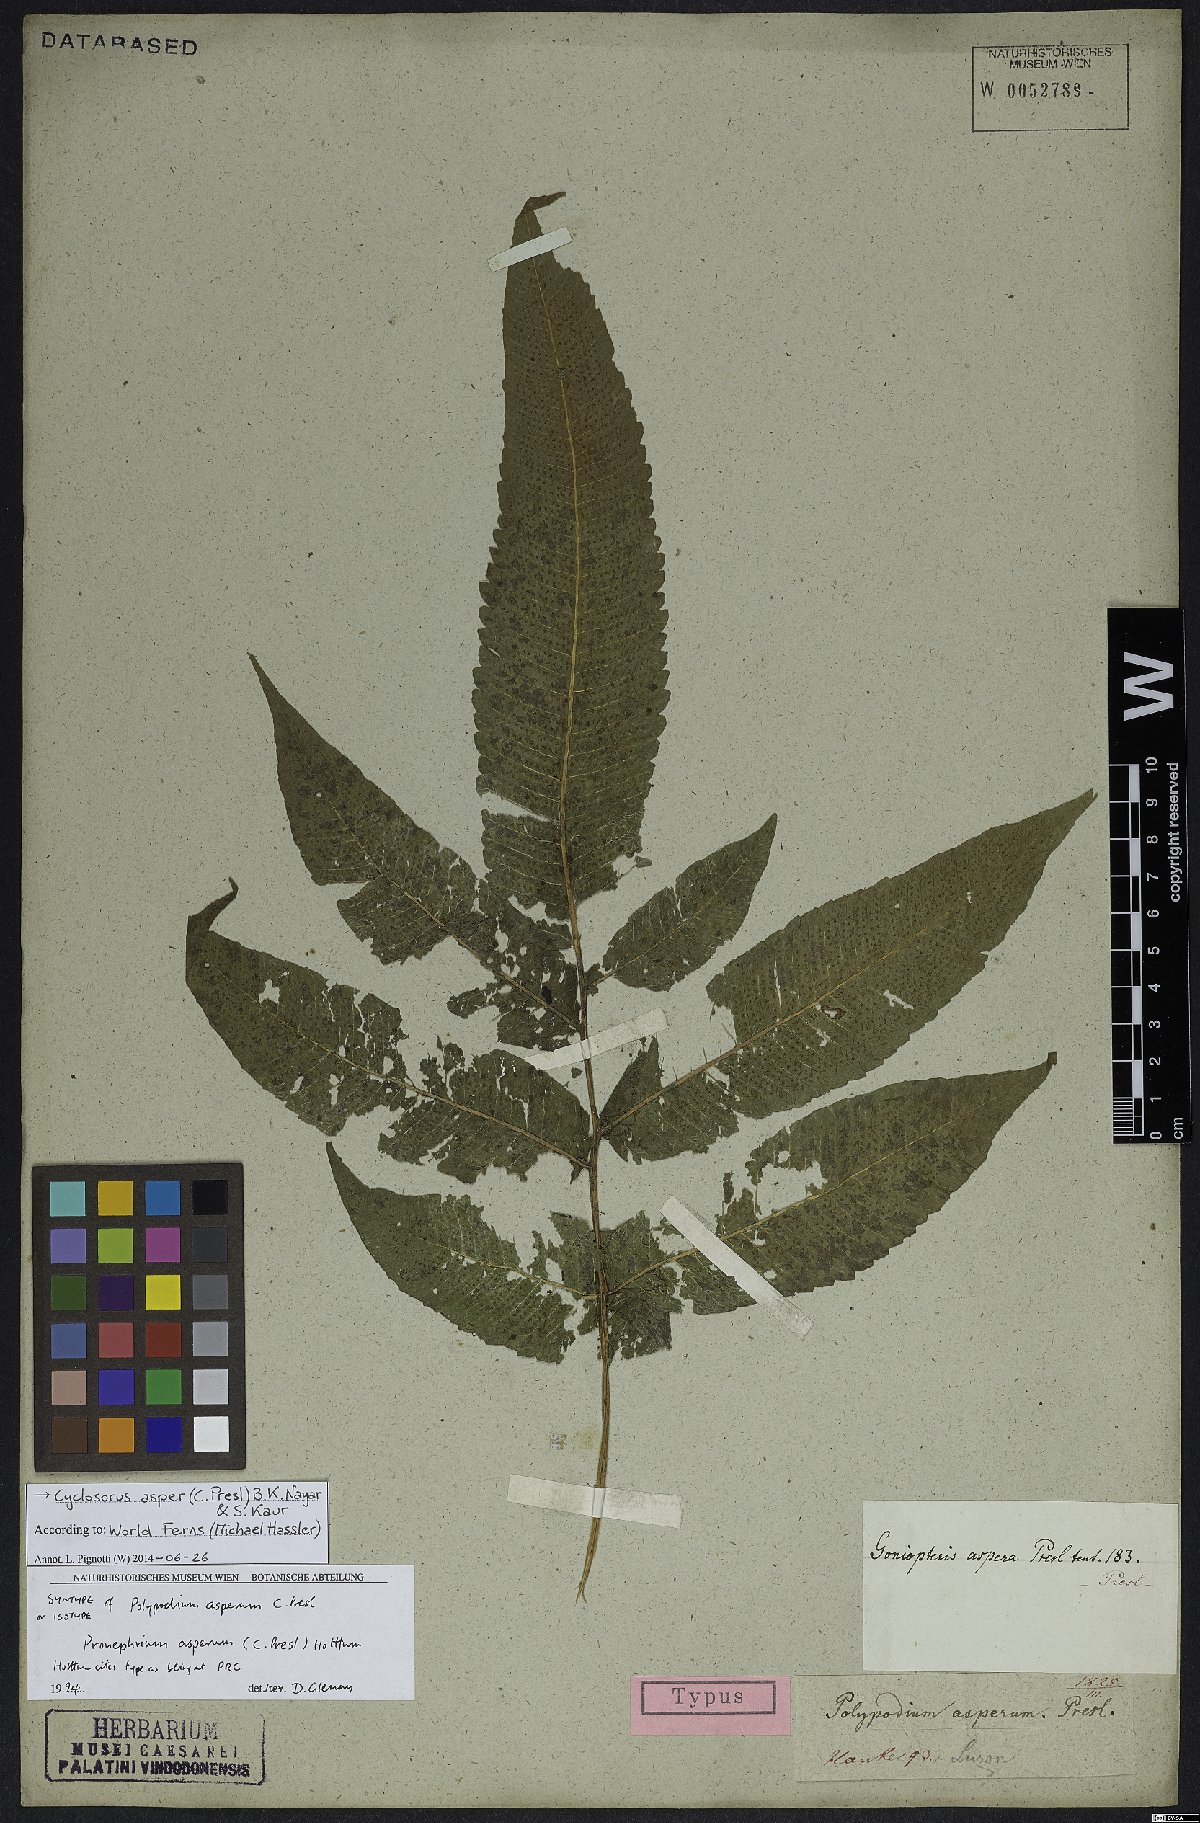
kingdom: Plantae
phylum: Tracheophyta
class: Polypodiopsida
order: Polypodiales
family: Thelypteridaceae
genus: Abacopteris
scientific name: Abacopteris aspera
